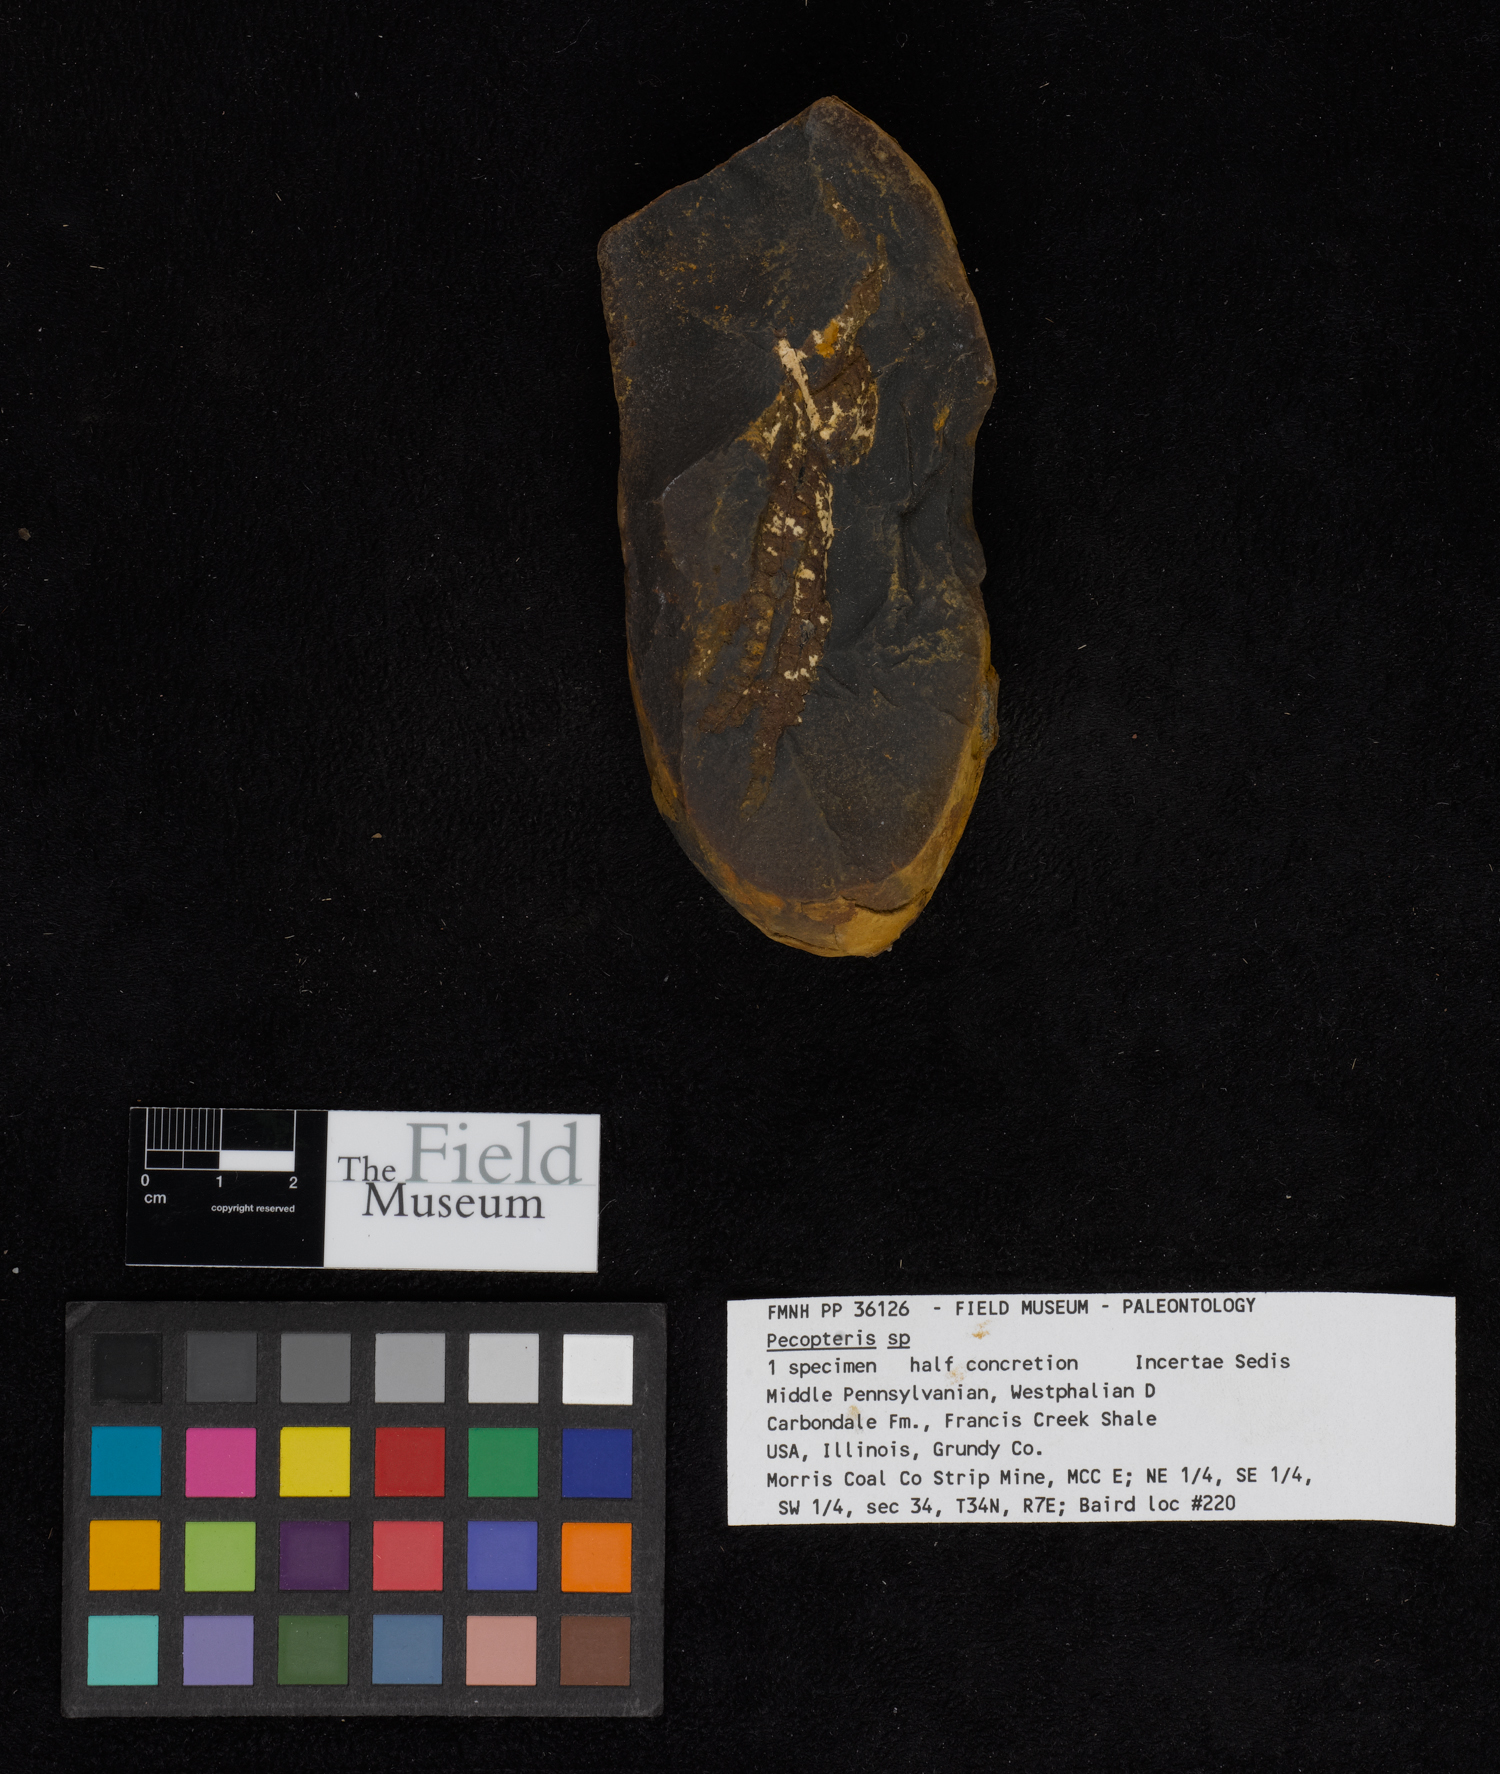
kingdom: Plantae
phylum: Tracheophyta
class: Polypodiopsida
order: Marattiales
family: Asterothecaceae
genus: Pecopteris
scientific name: Pecopteris
